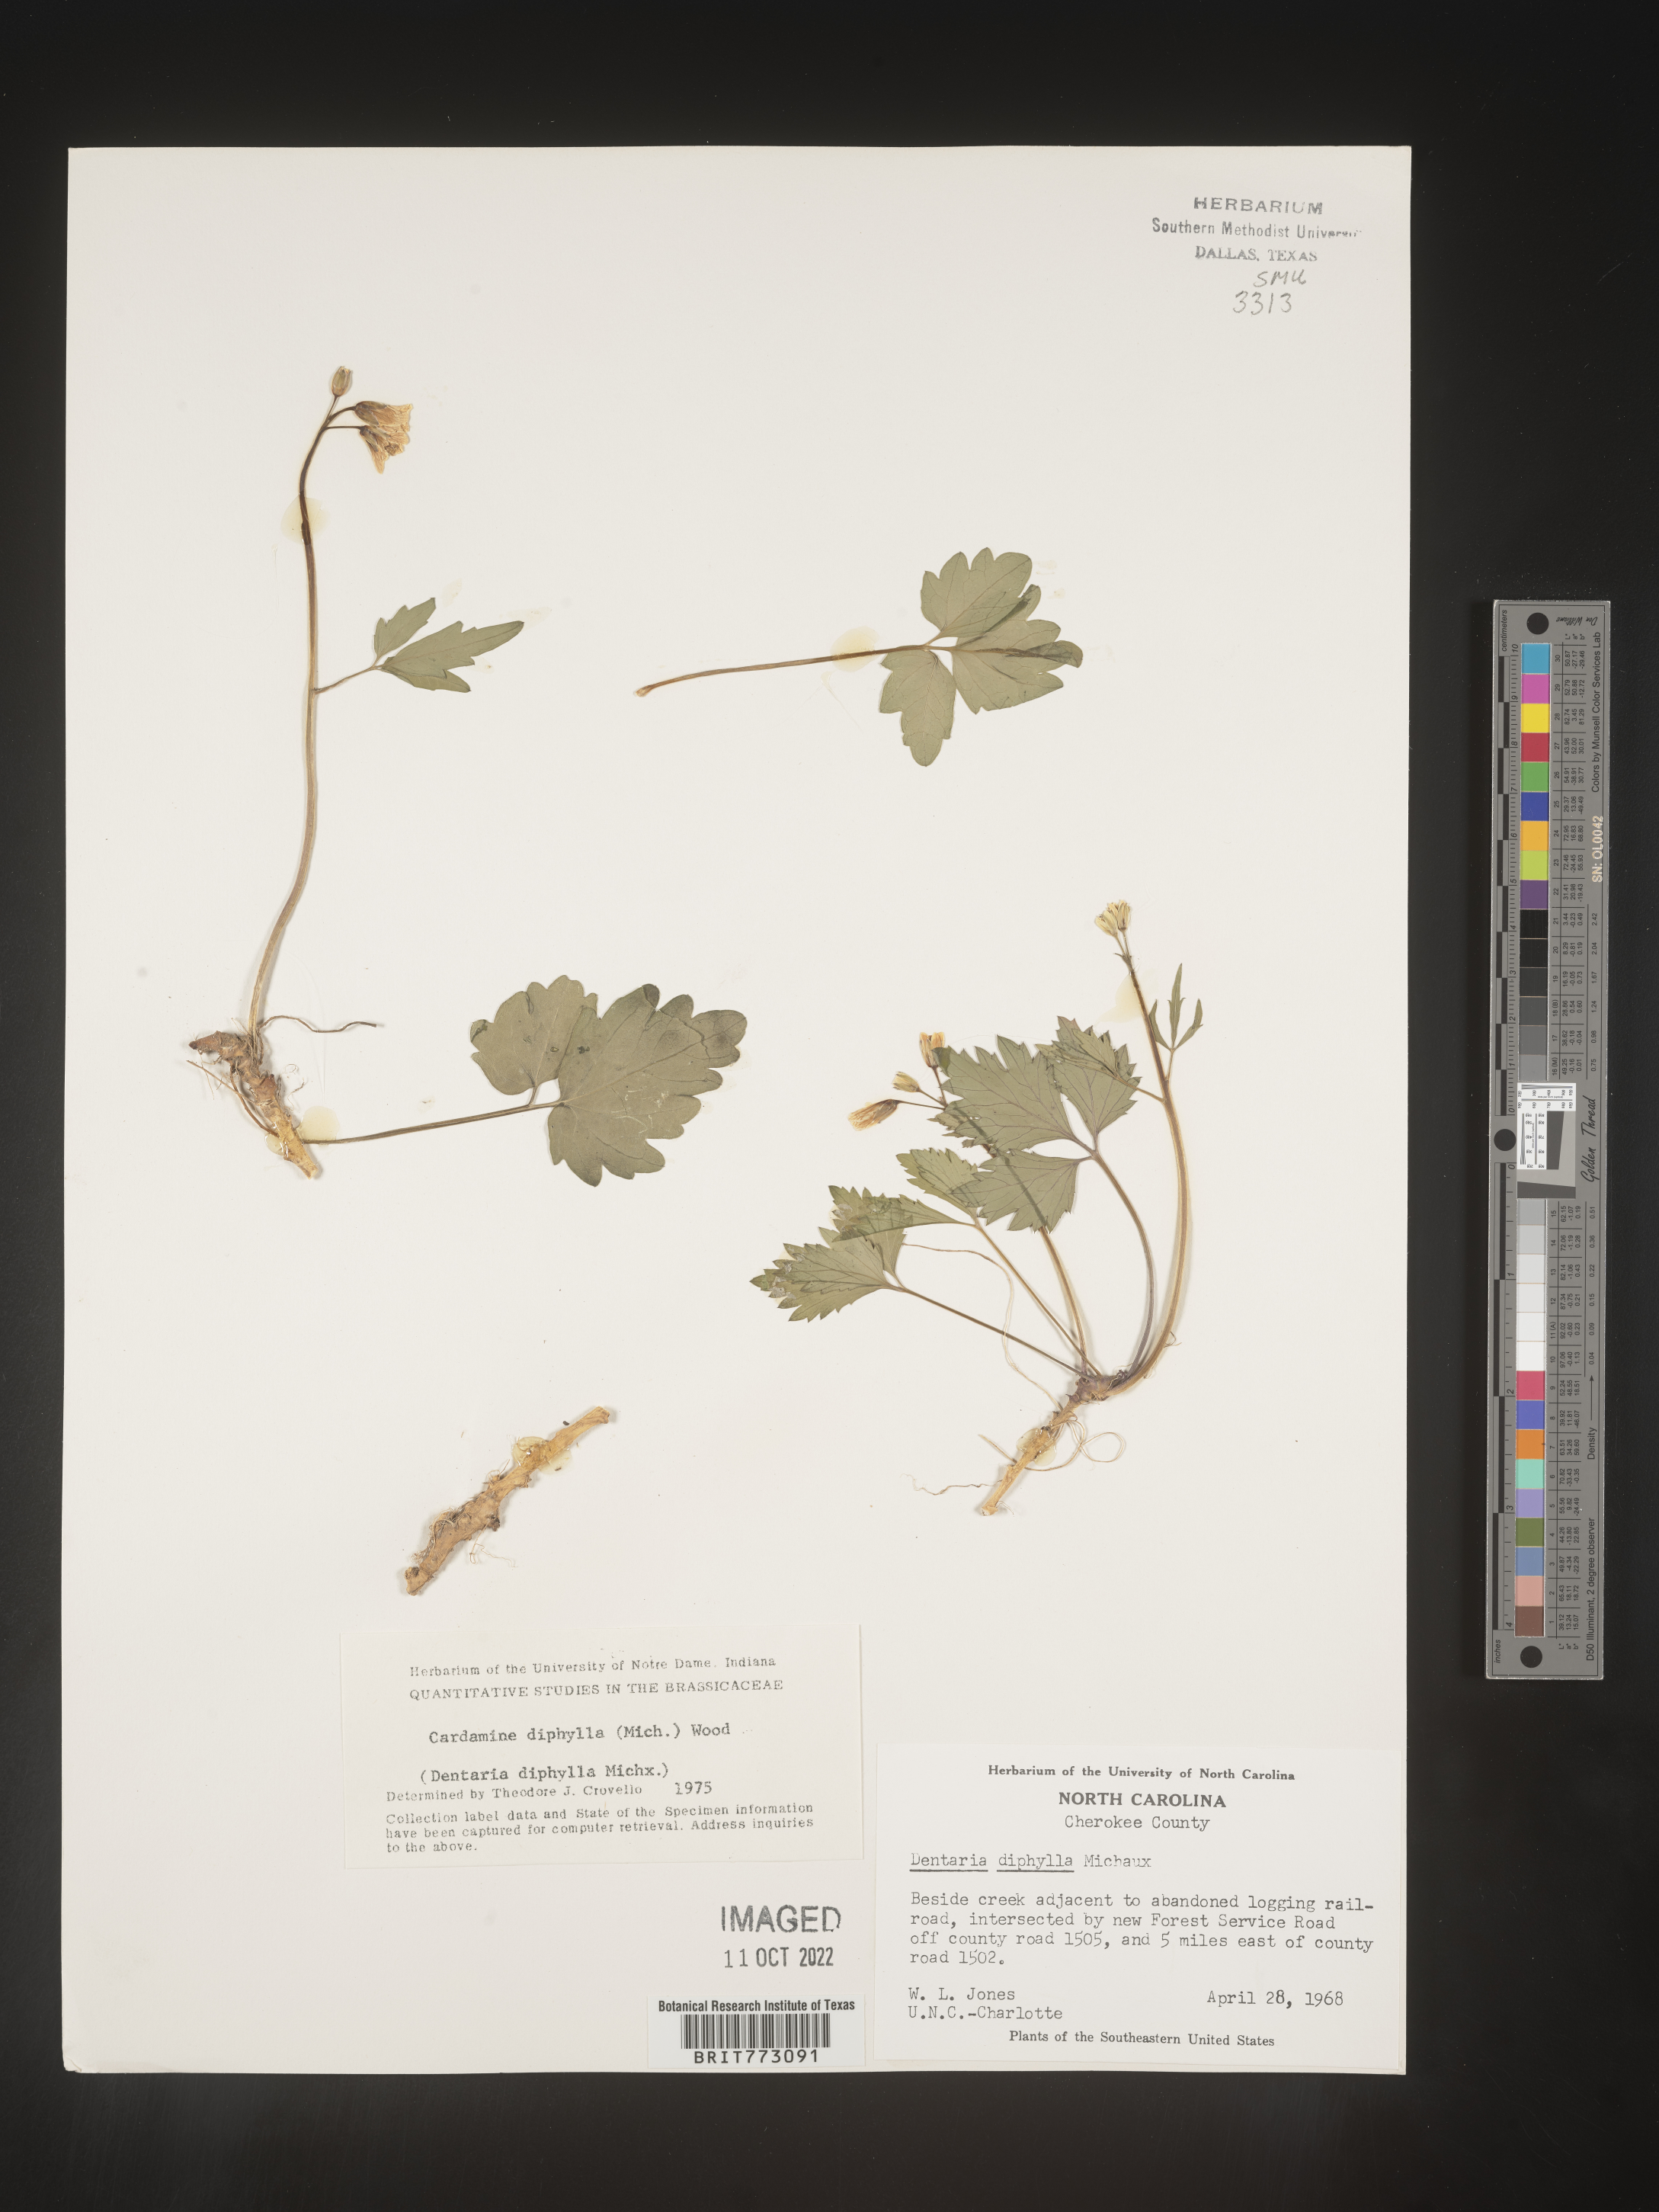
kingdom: Plantae
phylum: Tracheophyta
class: Magnoliopsida
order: Brassicales
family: Brassicaceae
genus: Cardamine
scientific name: Cardamine diphylla
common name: Broad-leaved toothwort
